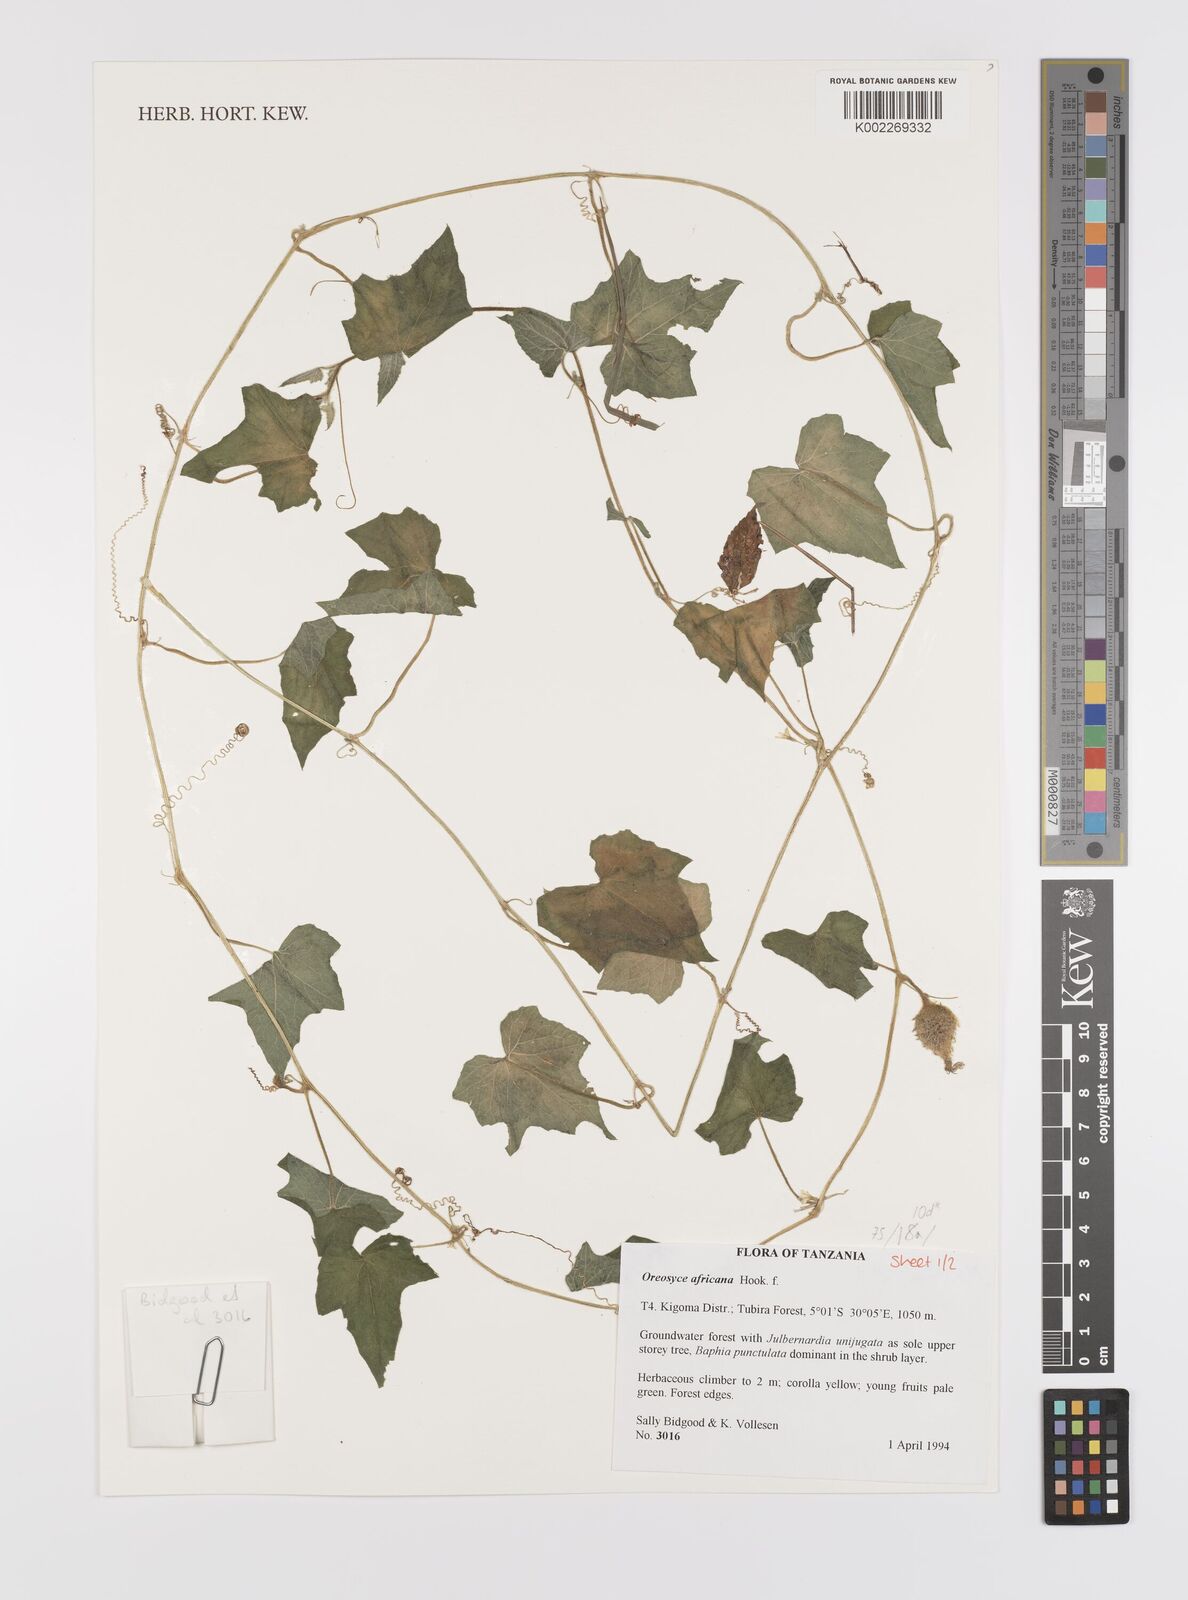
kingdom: Plantae
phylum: Tracheophyta
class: Magnoliopsida
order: Cucurbitales
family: Cucurbitaceae
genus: Cucumis
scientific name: Cucumis oreosyce
